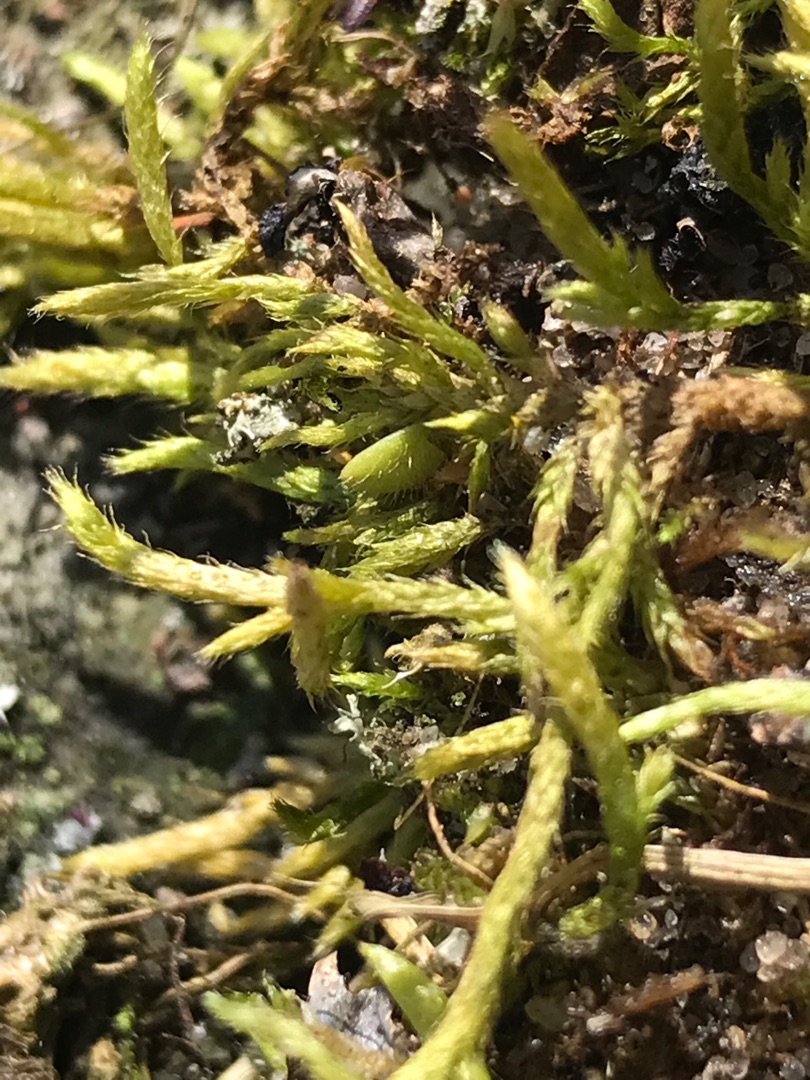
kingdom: Plantae
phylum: Bryophyta
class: Bryopsida
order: Hypnales
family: Brachytheciaceae
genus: Brachythecium
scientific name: Brachythecium albicans
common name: Hvidlig kortkapsel
